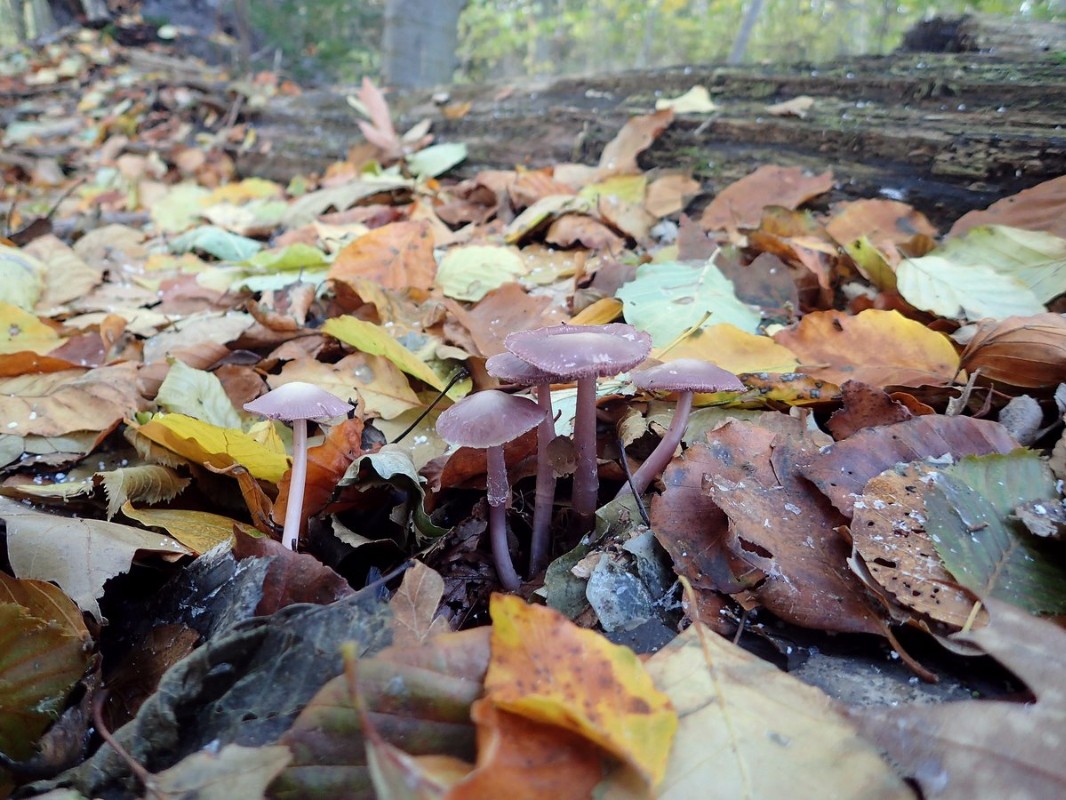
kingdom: Fungi
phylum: Basidiomycota
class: Agaricomycetes
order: Agaricales
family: Mycenaceae
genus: Prunulus
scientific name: Prunulus diosmus
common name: tobaks-huesvamp
